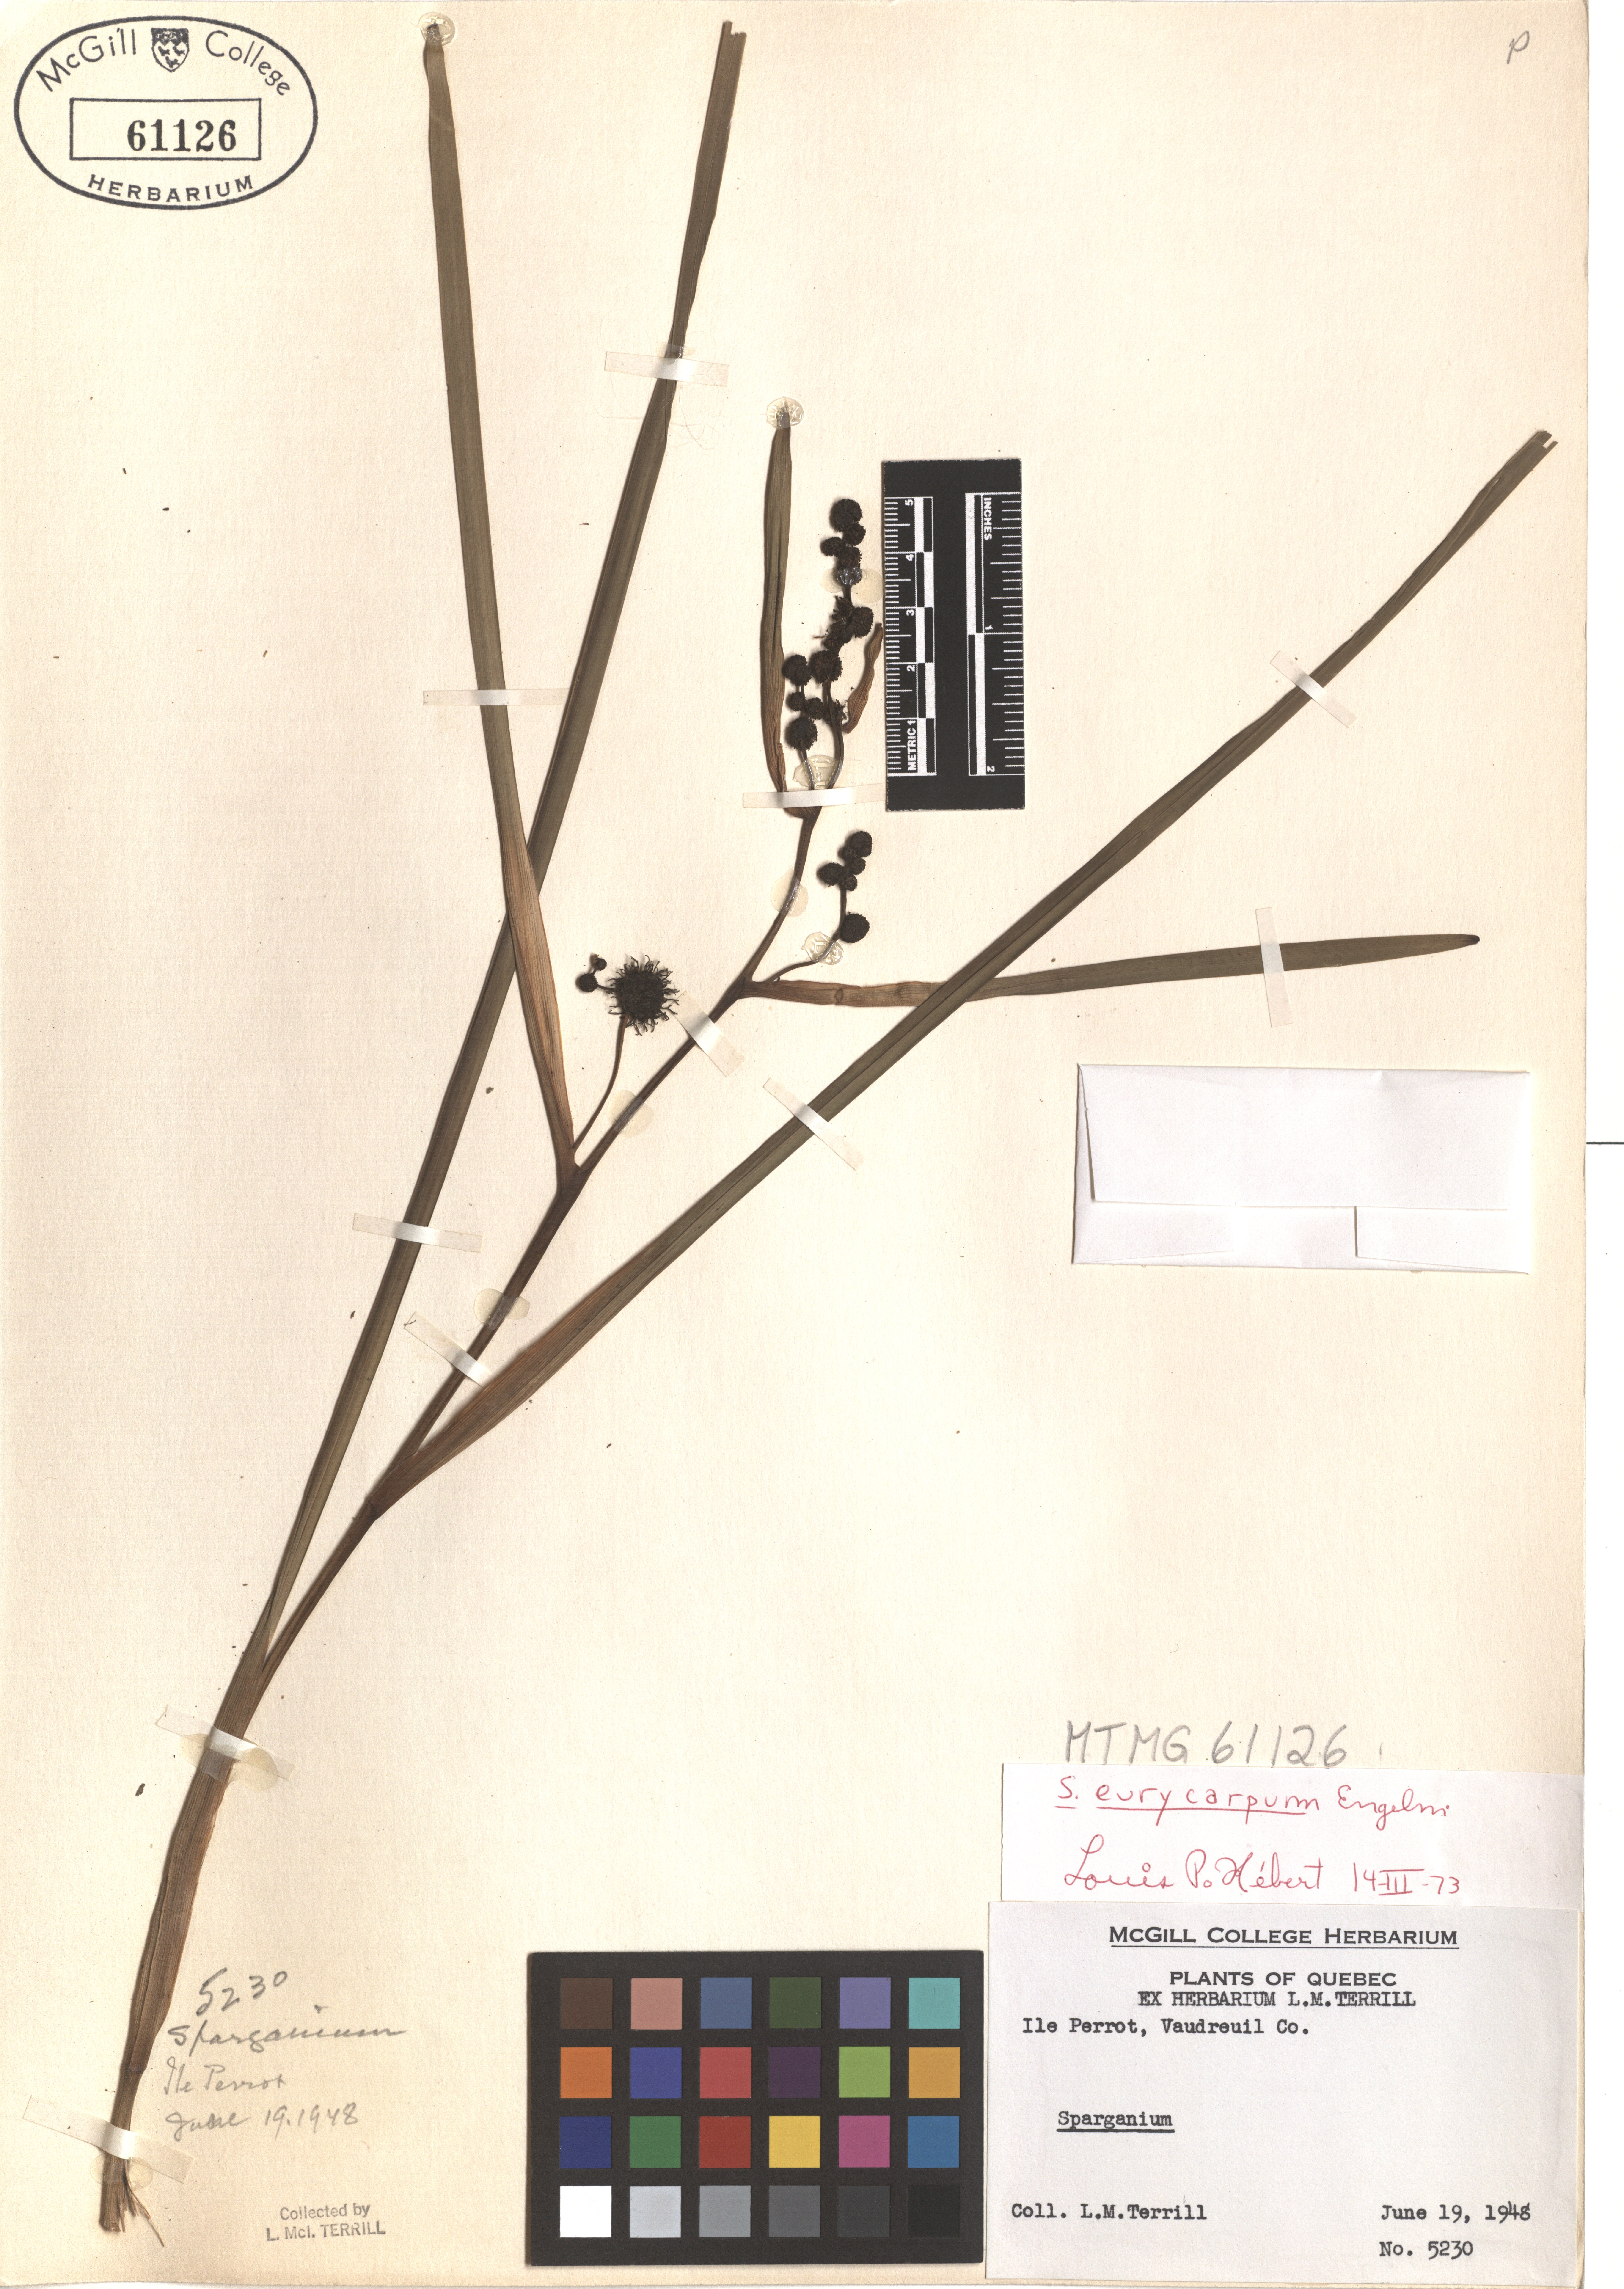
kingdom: Plantae
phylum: Tracheophyta
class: Liliopsida
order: Poales
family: Typhaceae
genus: Sparganium
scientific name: Sparganium eurycarpum
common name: Broad-fruited burreed
